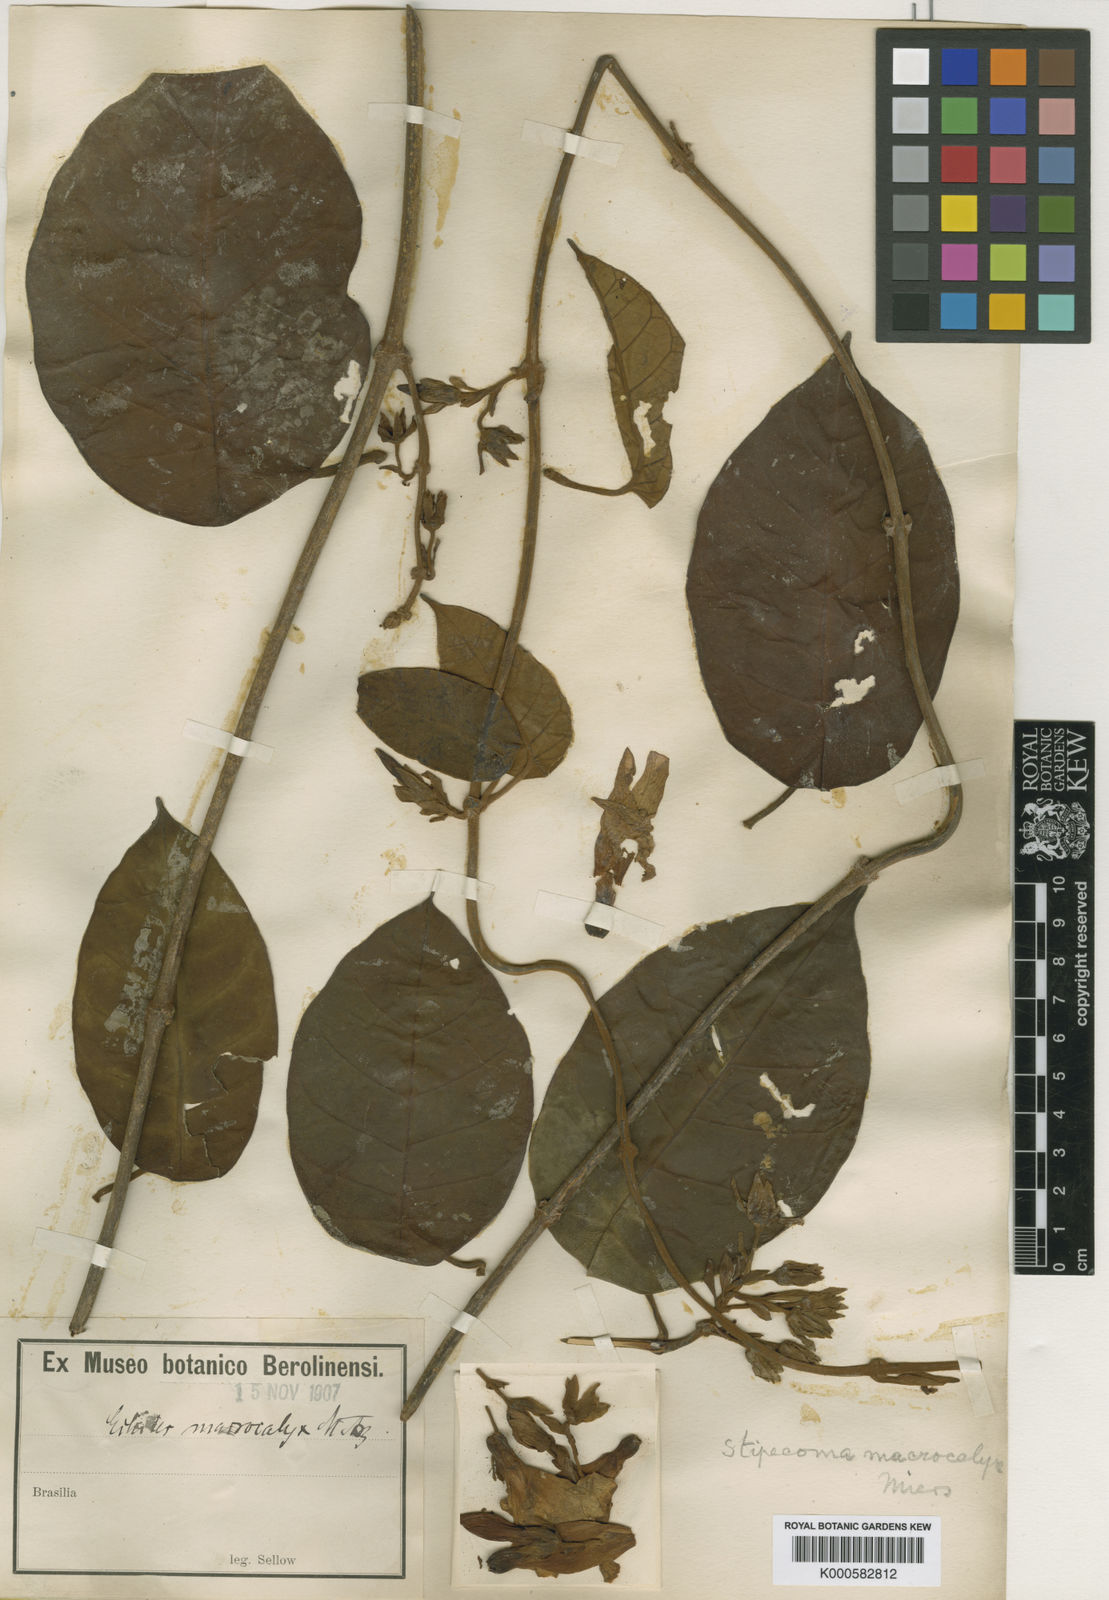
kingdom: Plantae
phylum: Tracheophyta
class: Magnoliopsida
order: Gentianales
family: Apocynaceae
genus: Macropharynx
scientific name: Macropharynx peltata
